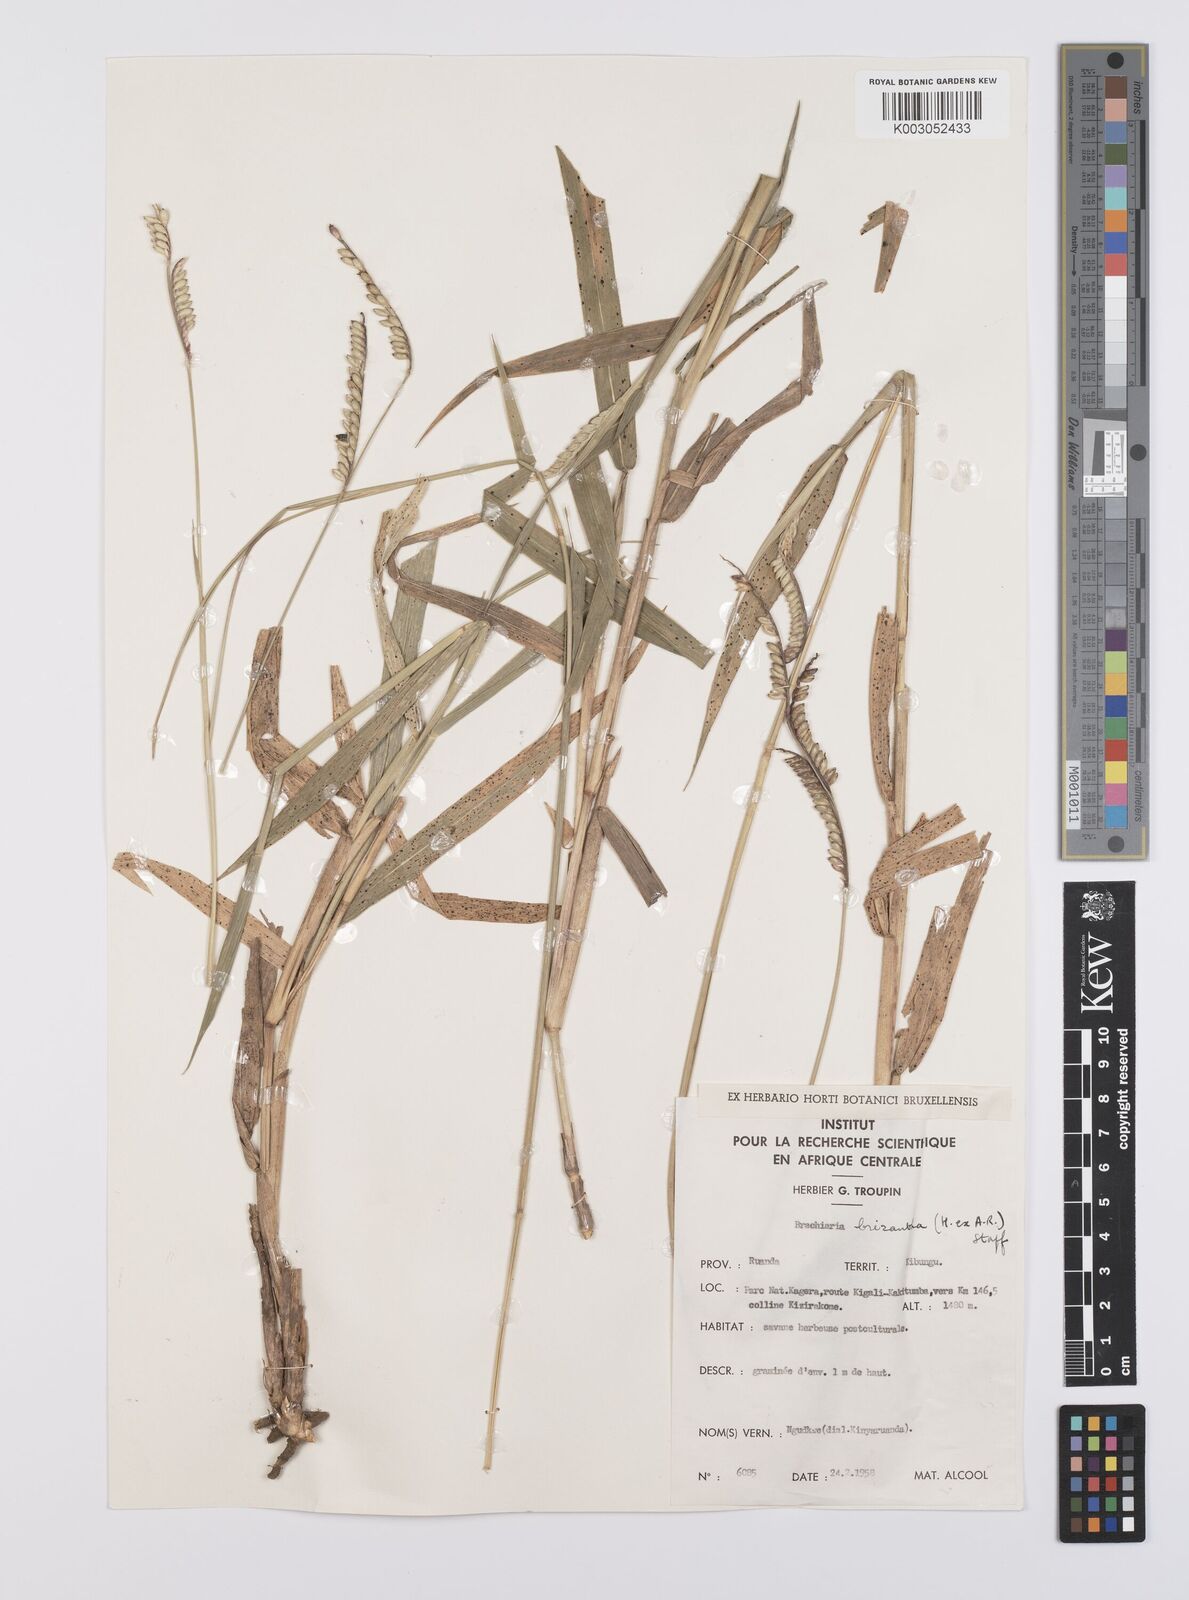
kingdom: Plantae
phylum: Tracheophyta
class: Liliopsida
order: Poales
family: Poaceae
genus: Urochloa
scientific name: Urochloa brizantha
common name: Palisade signalgrass
